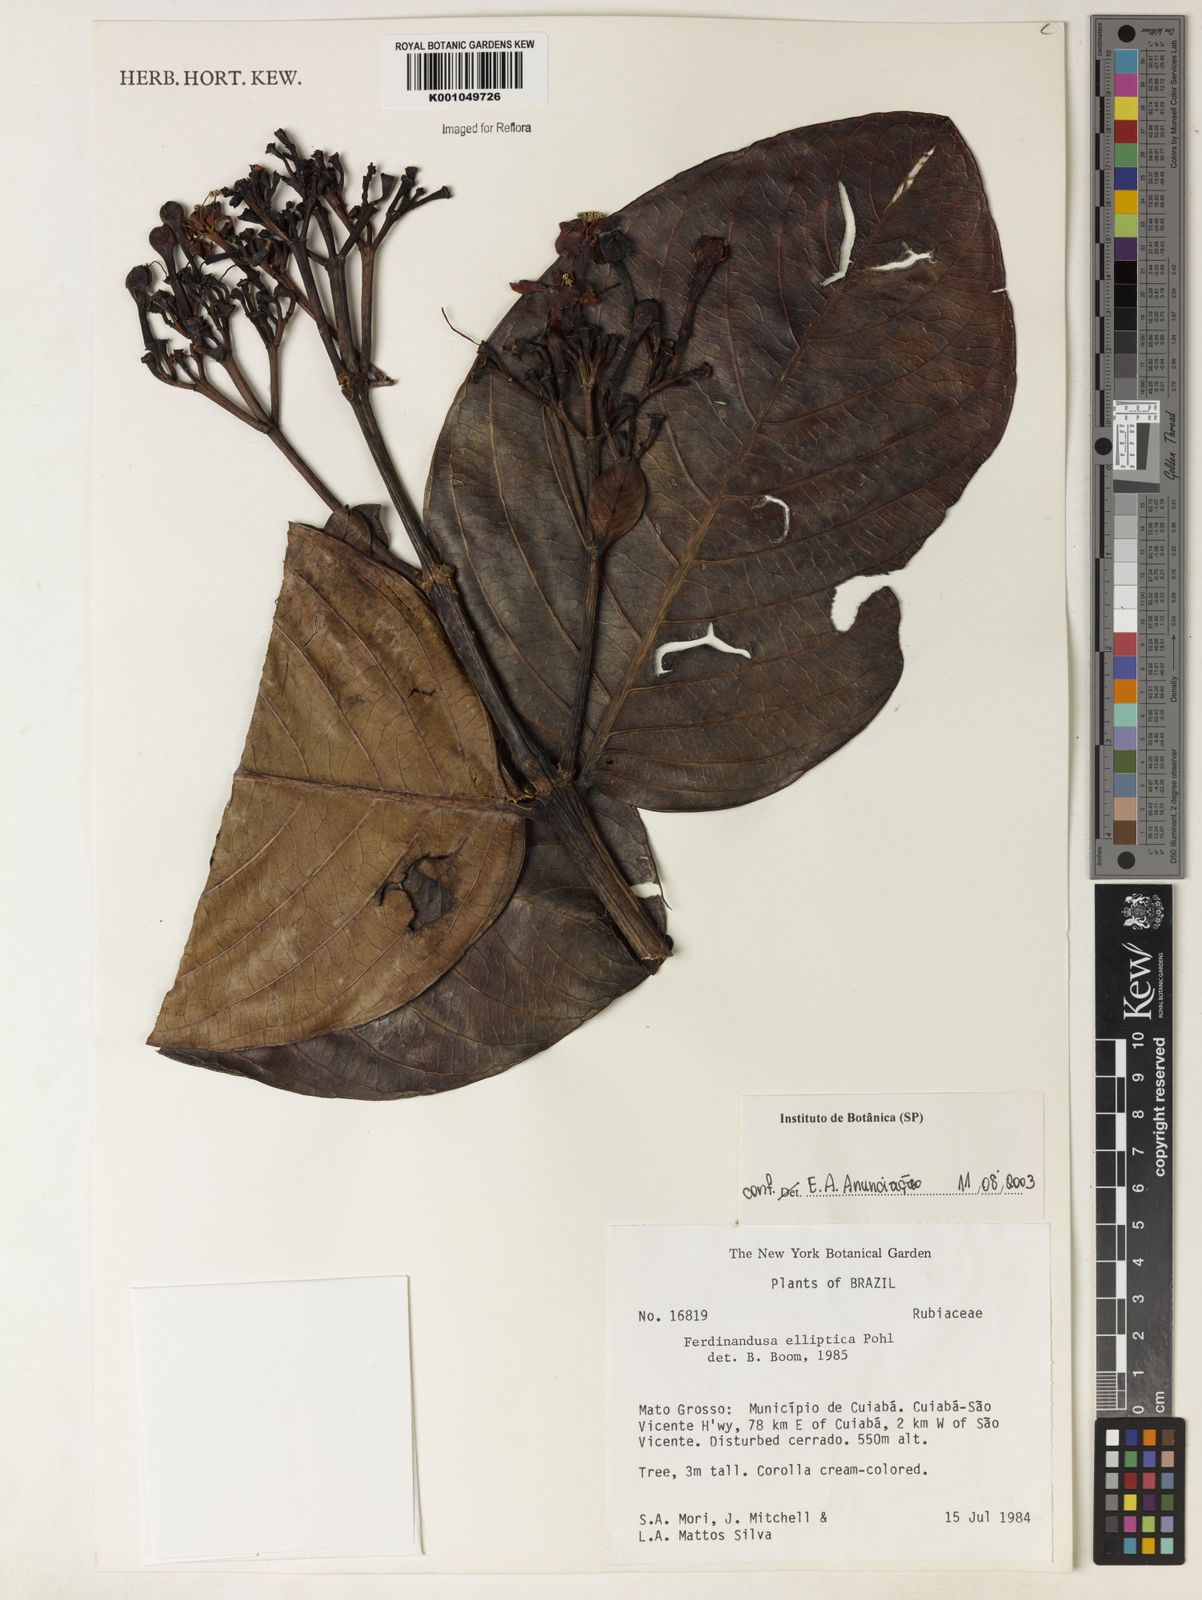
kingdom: Plantae
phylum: Tracheophyta
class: Magnoliopsida
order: Gentianales
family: Rubiaceae
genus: Ferdinandusa
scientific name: Ferdinandusa elliptica
